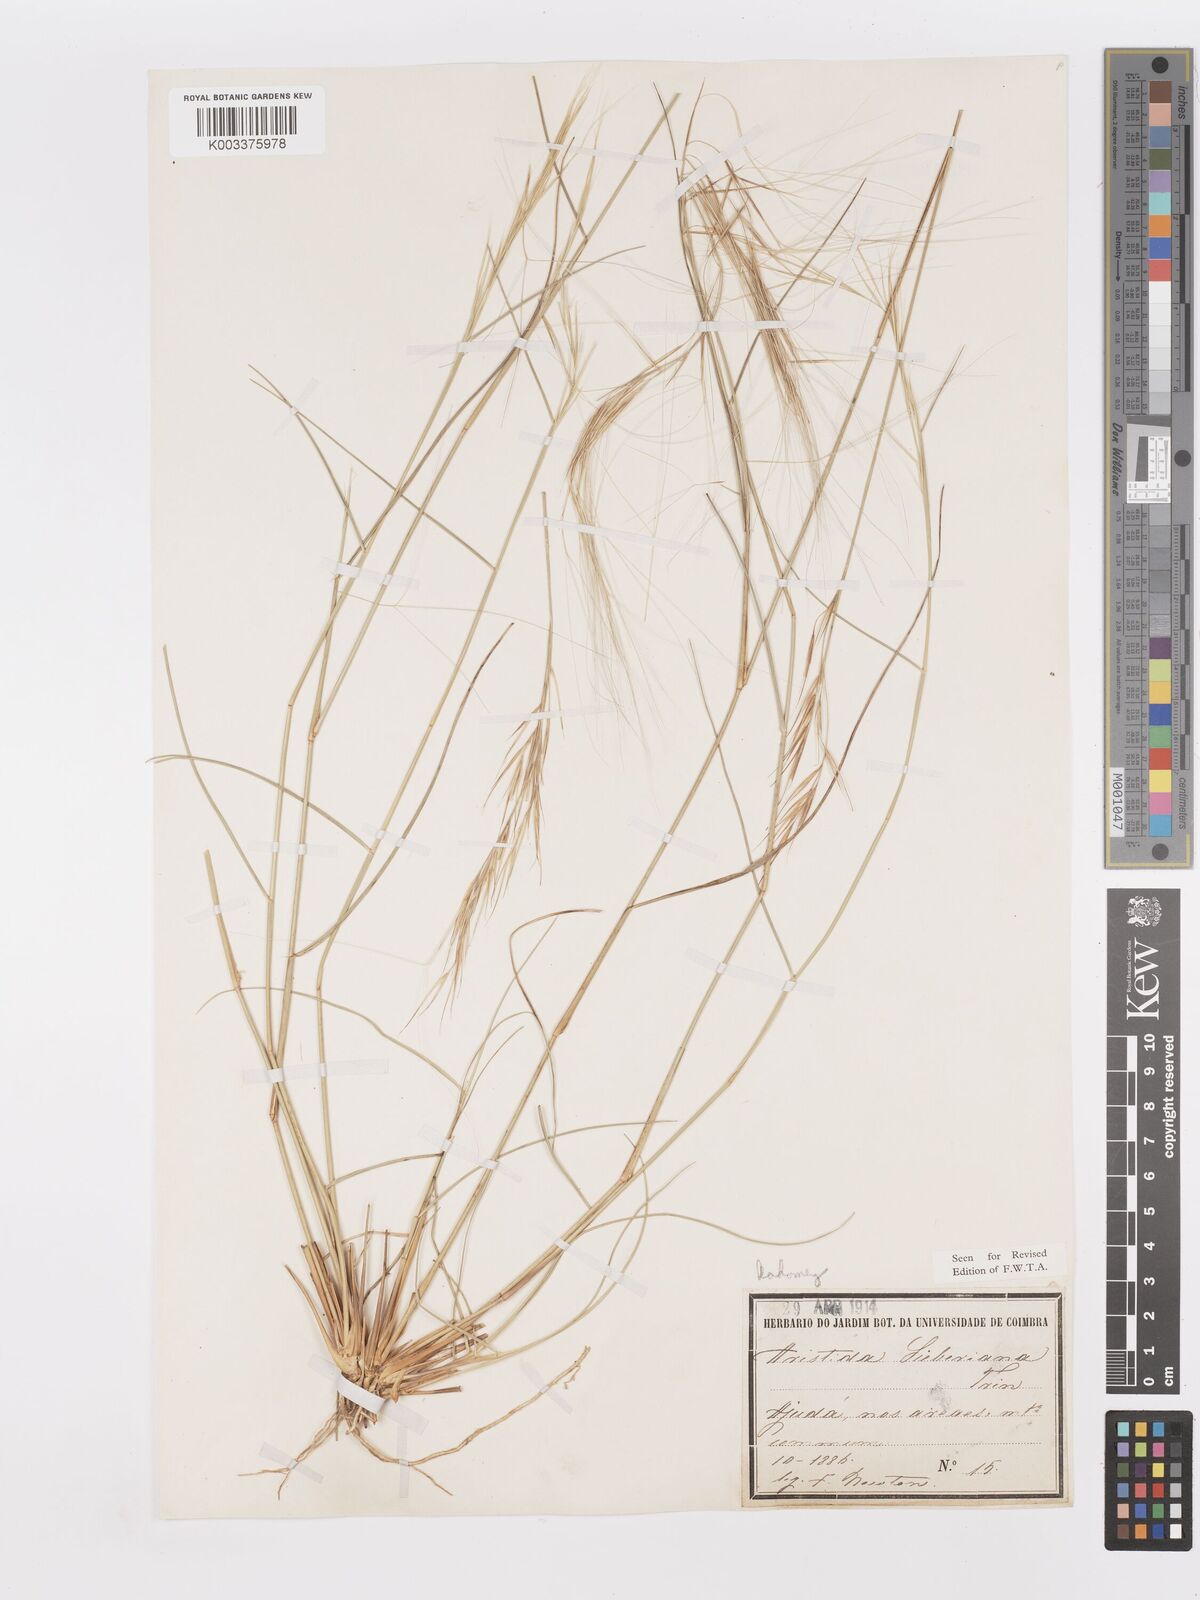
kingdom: Plantae
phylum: Tracheophyta
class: Liliopsida
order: Poales
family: Poaceae
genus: Aristida
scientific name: Aristida sieberiana
